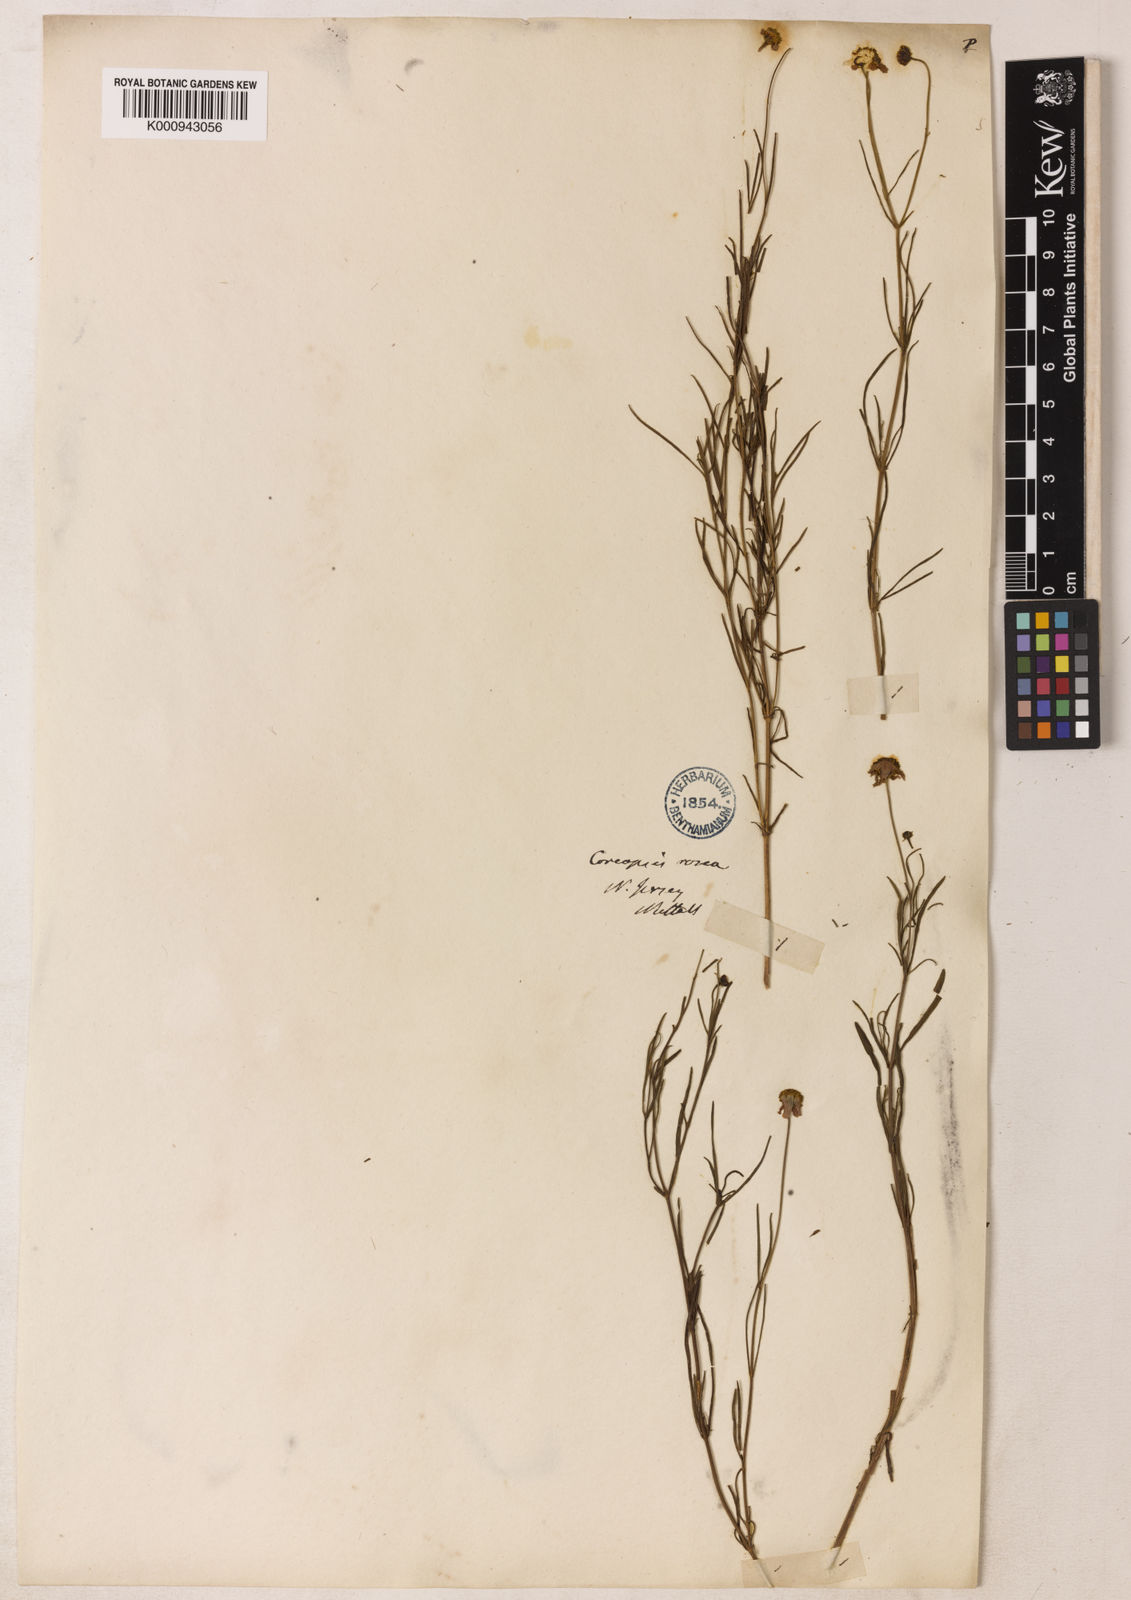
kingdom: Plantae
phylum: Tracheophyta
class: Magnoliopsida
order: Asterales
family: Asteraceae
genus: Coreopsis
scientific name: Coreopsis rosea
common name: Pink coreopsis
